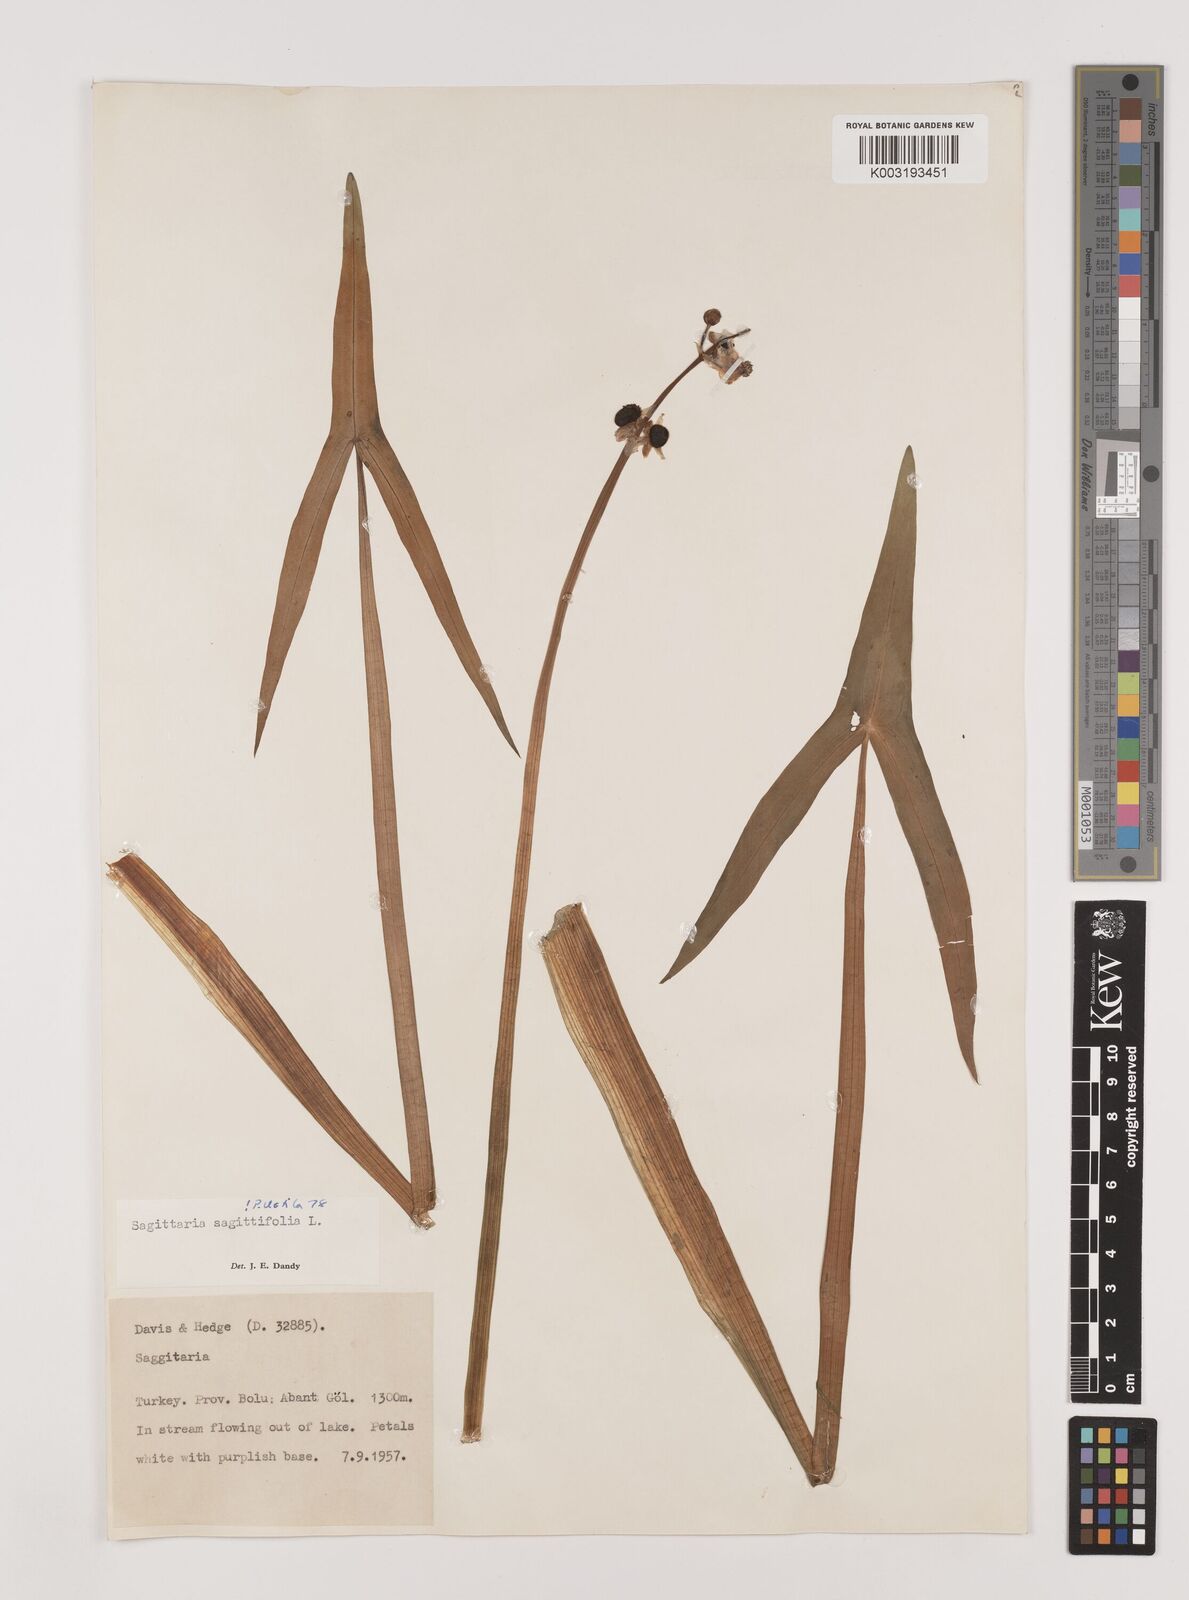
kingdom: Plantae
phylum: Tracheophyta
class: Liliopsida
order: Alismatales
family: Alismataceae
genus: Sagittaria
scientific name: Sagittaria sagittifolia
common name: Arrowhead
